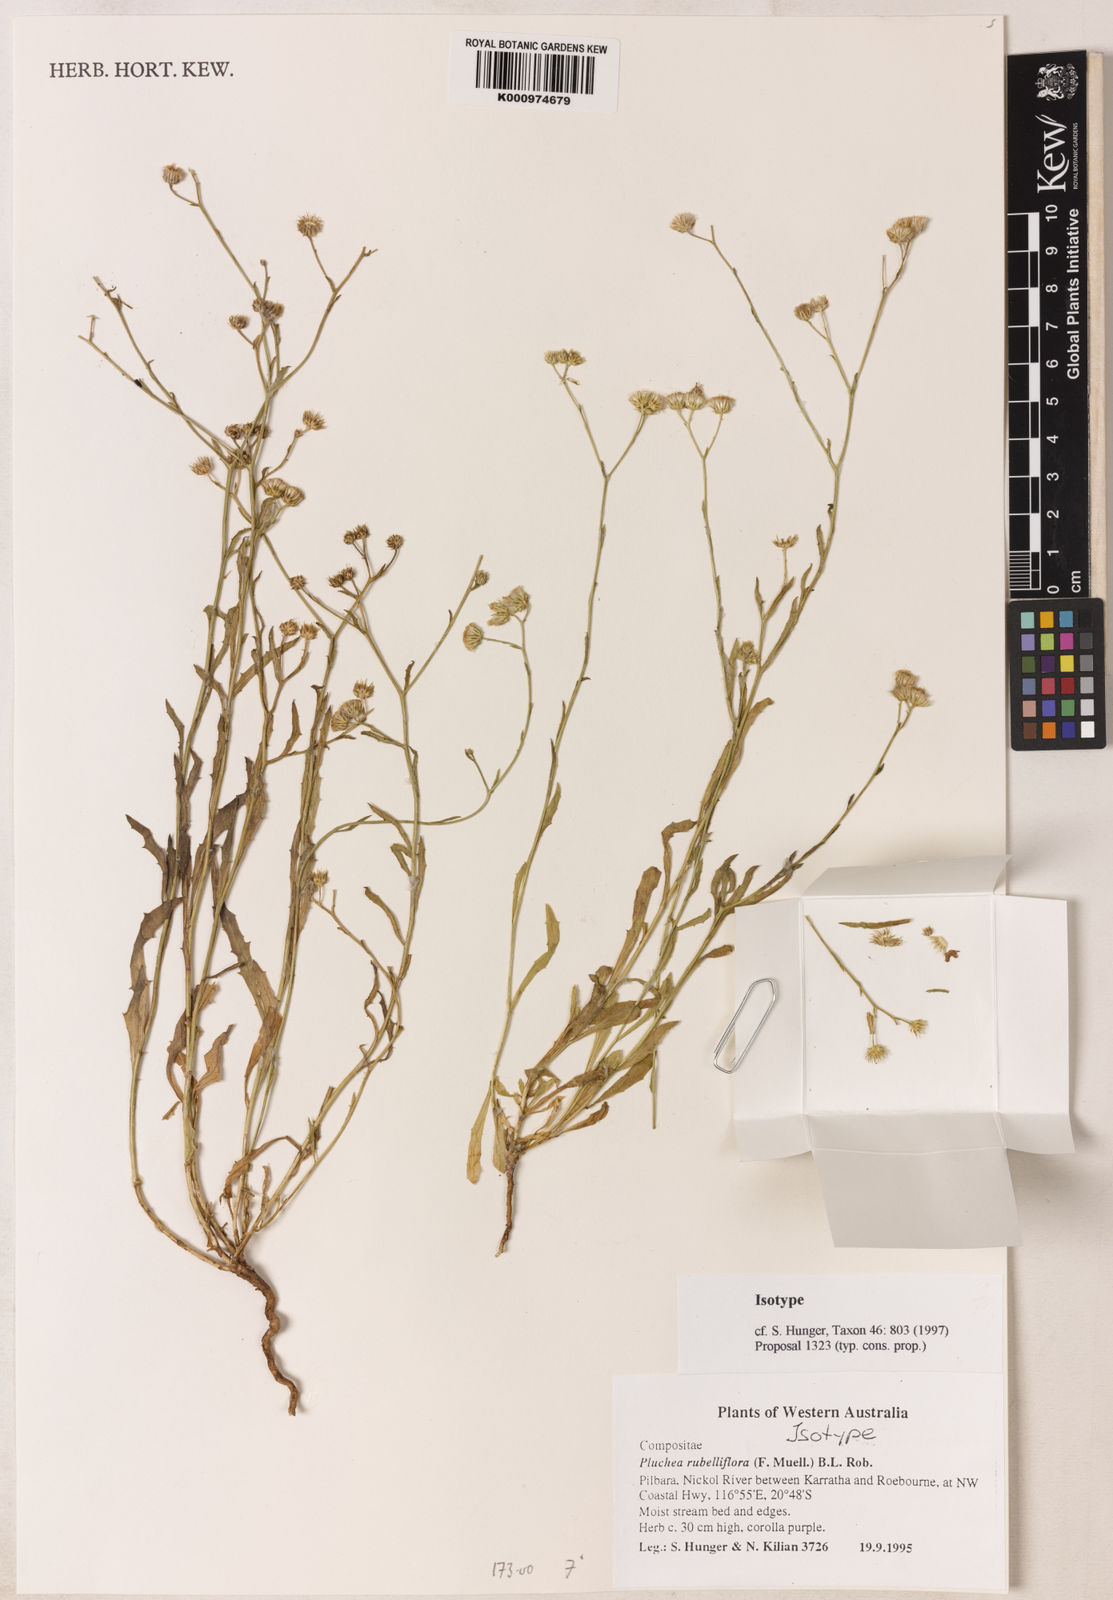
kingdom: Plantae
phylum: Tracheophyta
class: Magnoliopsida
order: Asterales
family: Asteraceae
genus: Pluchea
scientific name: Pluchea rubelliflora
